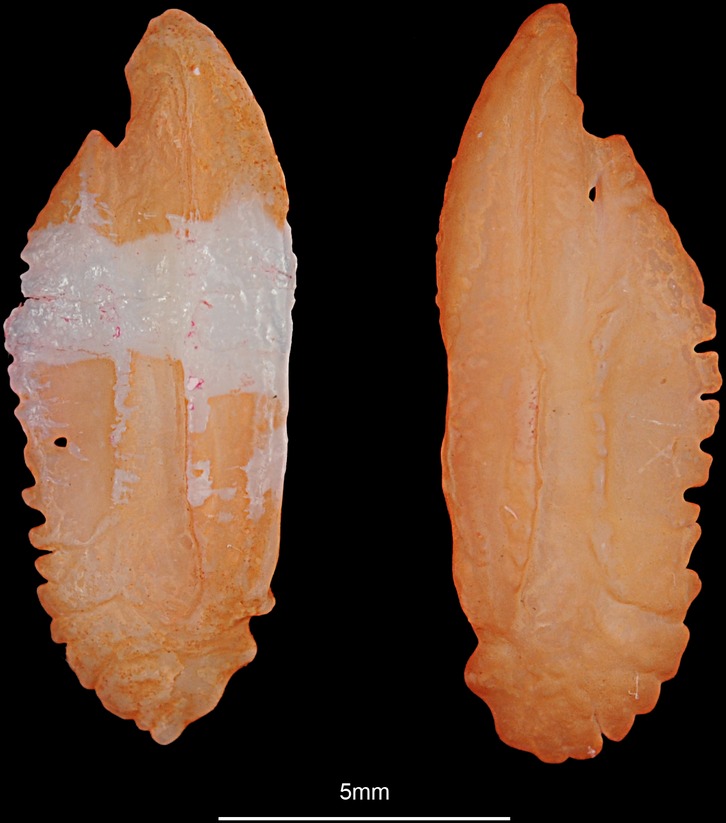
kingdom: Animalia
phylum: Chordata
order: Perciformes
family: Percidae
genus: Sander
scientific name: Sander lucioperca
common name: Pikeperch
